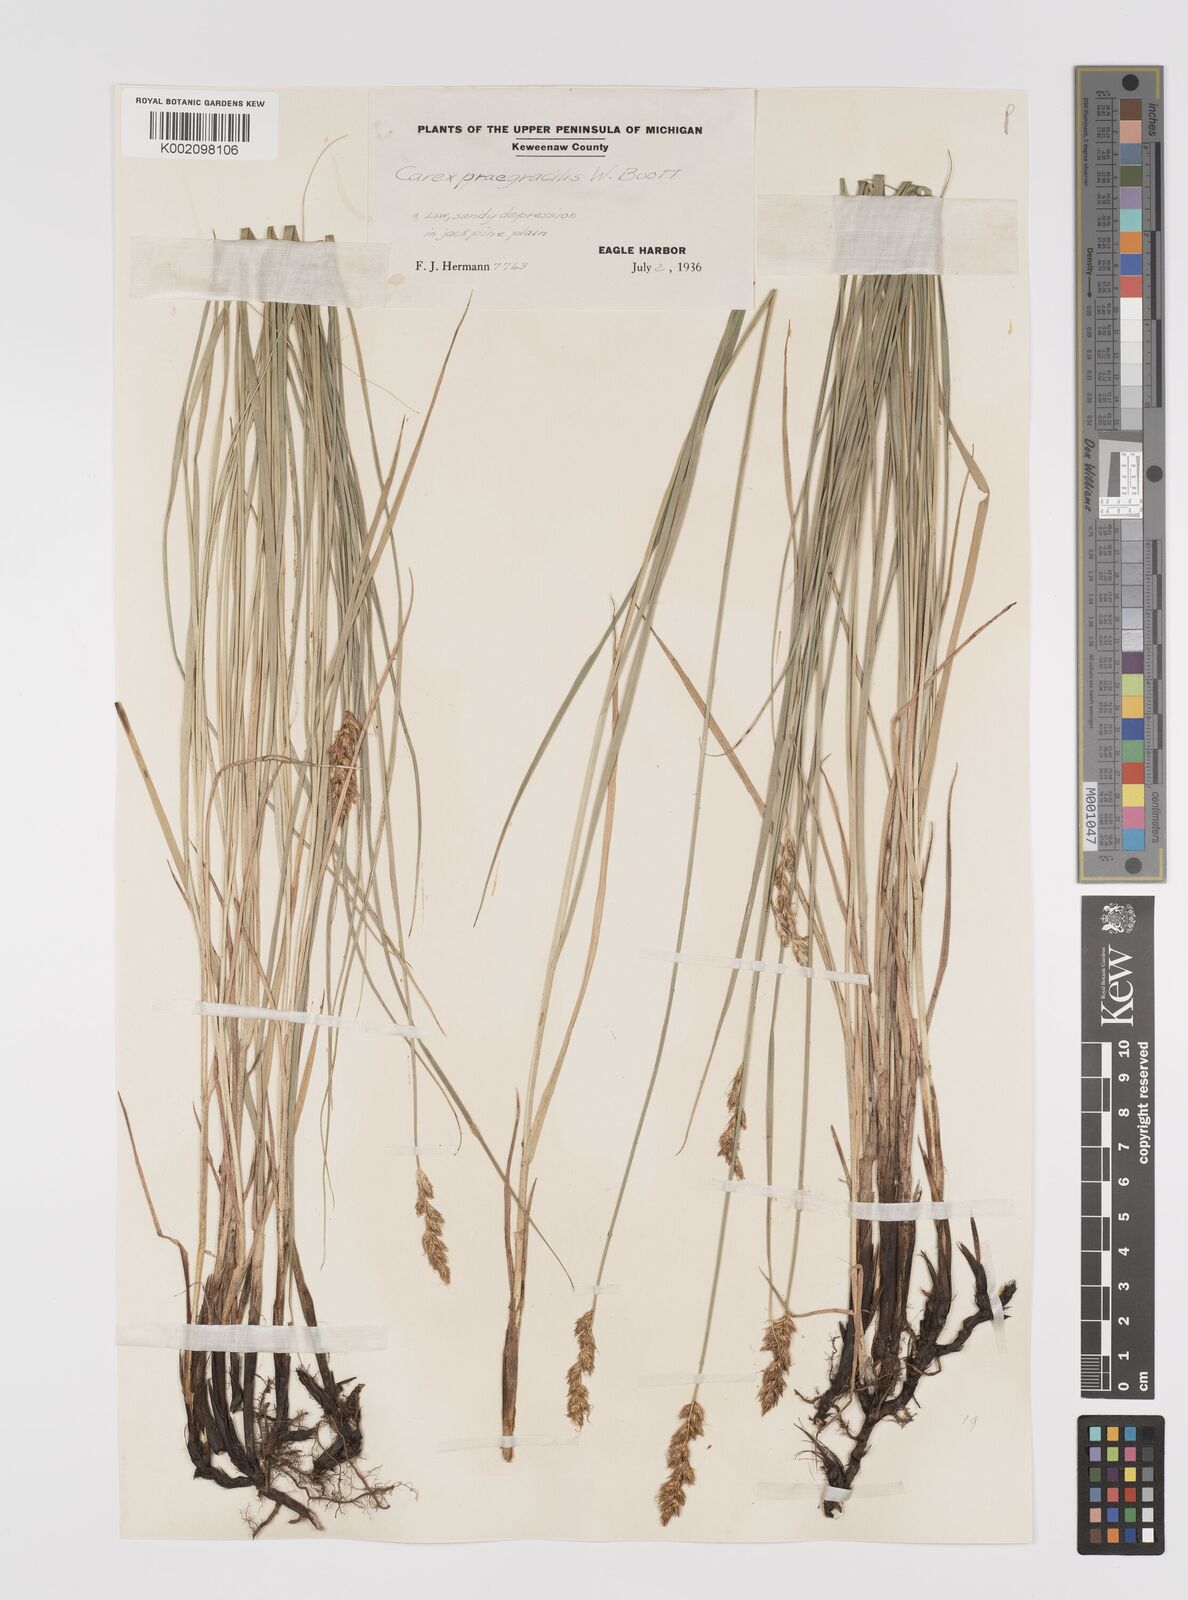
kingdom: Plantae
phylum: Tracheophyta
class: Liliopsida
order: Poales
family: Cyperaceae
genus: Carex
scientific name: Carex praegracilis
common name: Black creeper sedge
